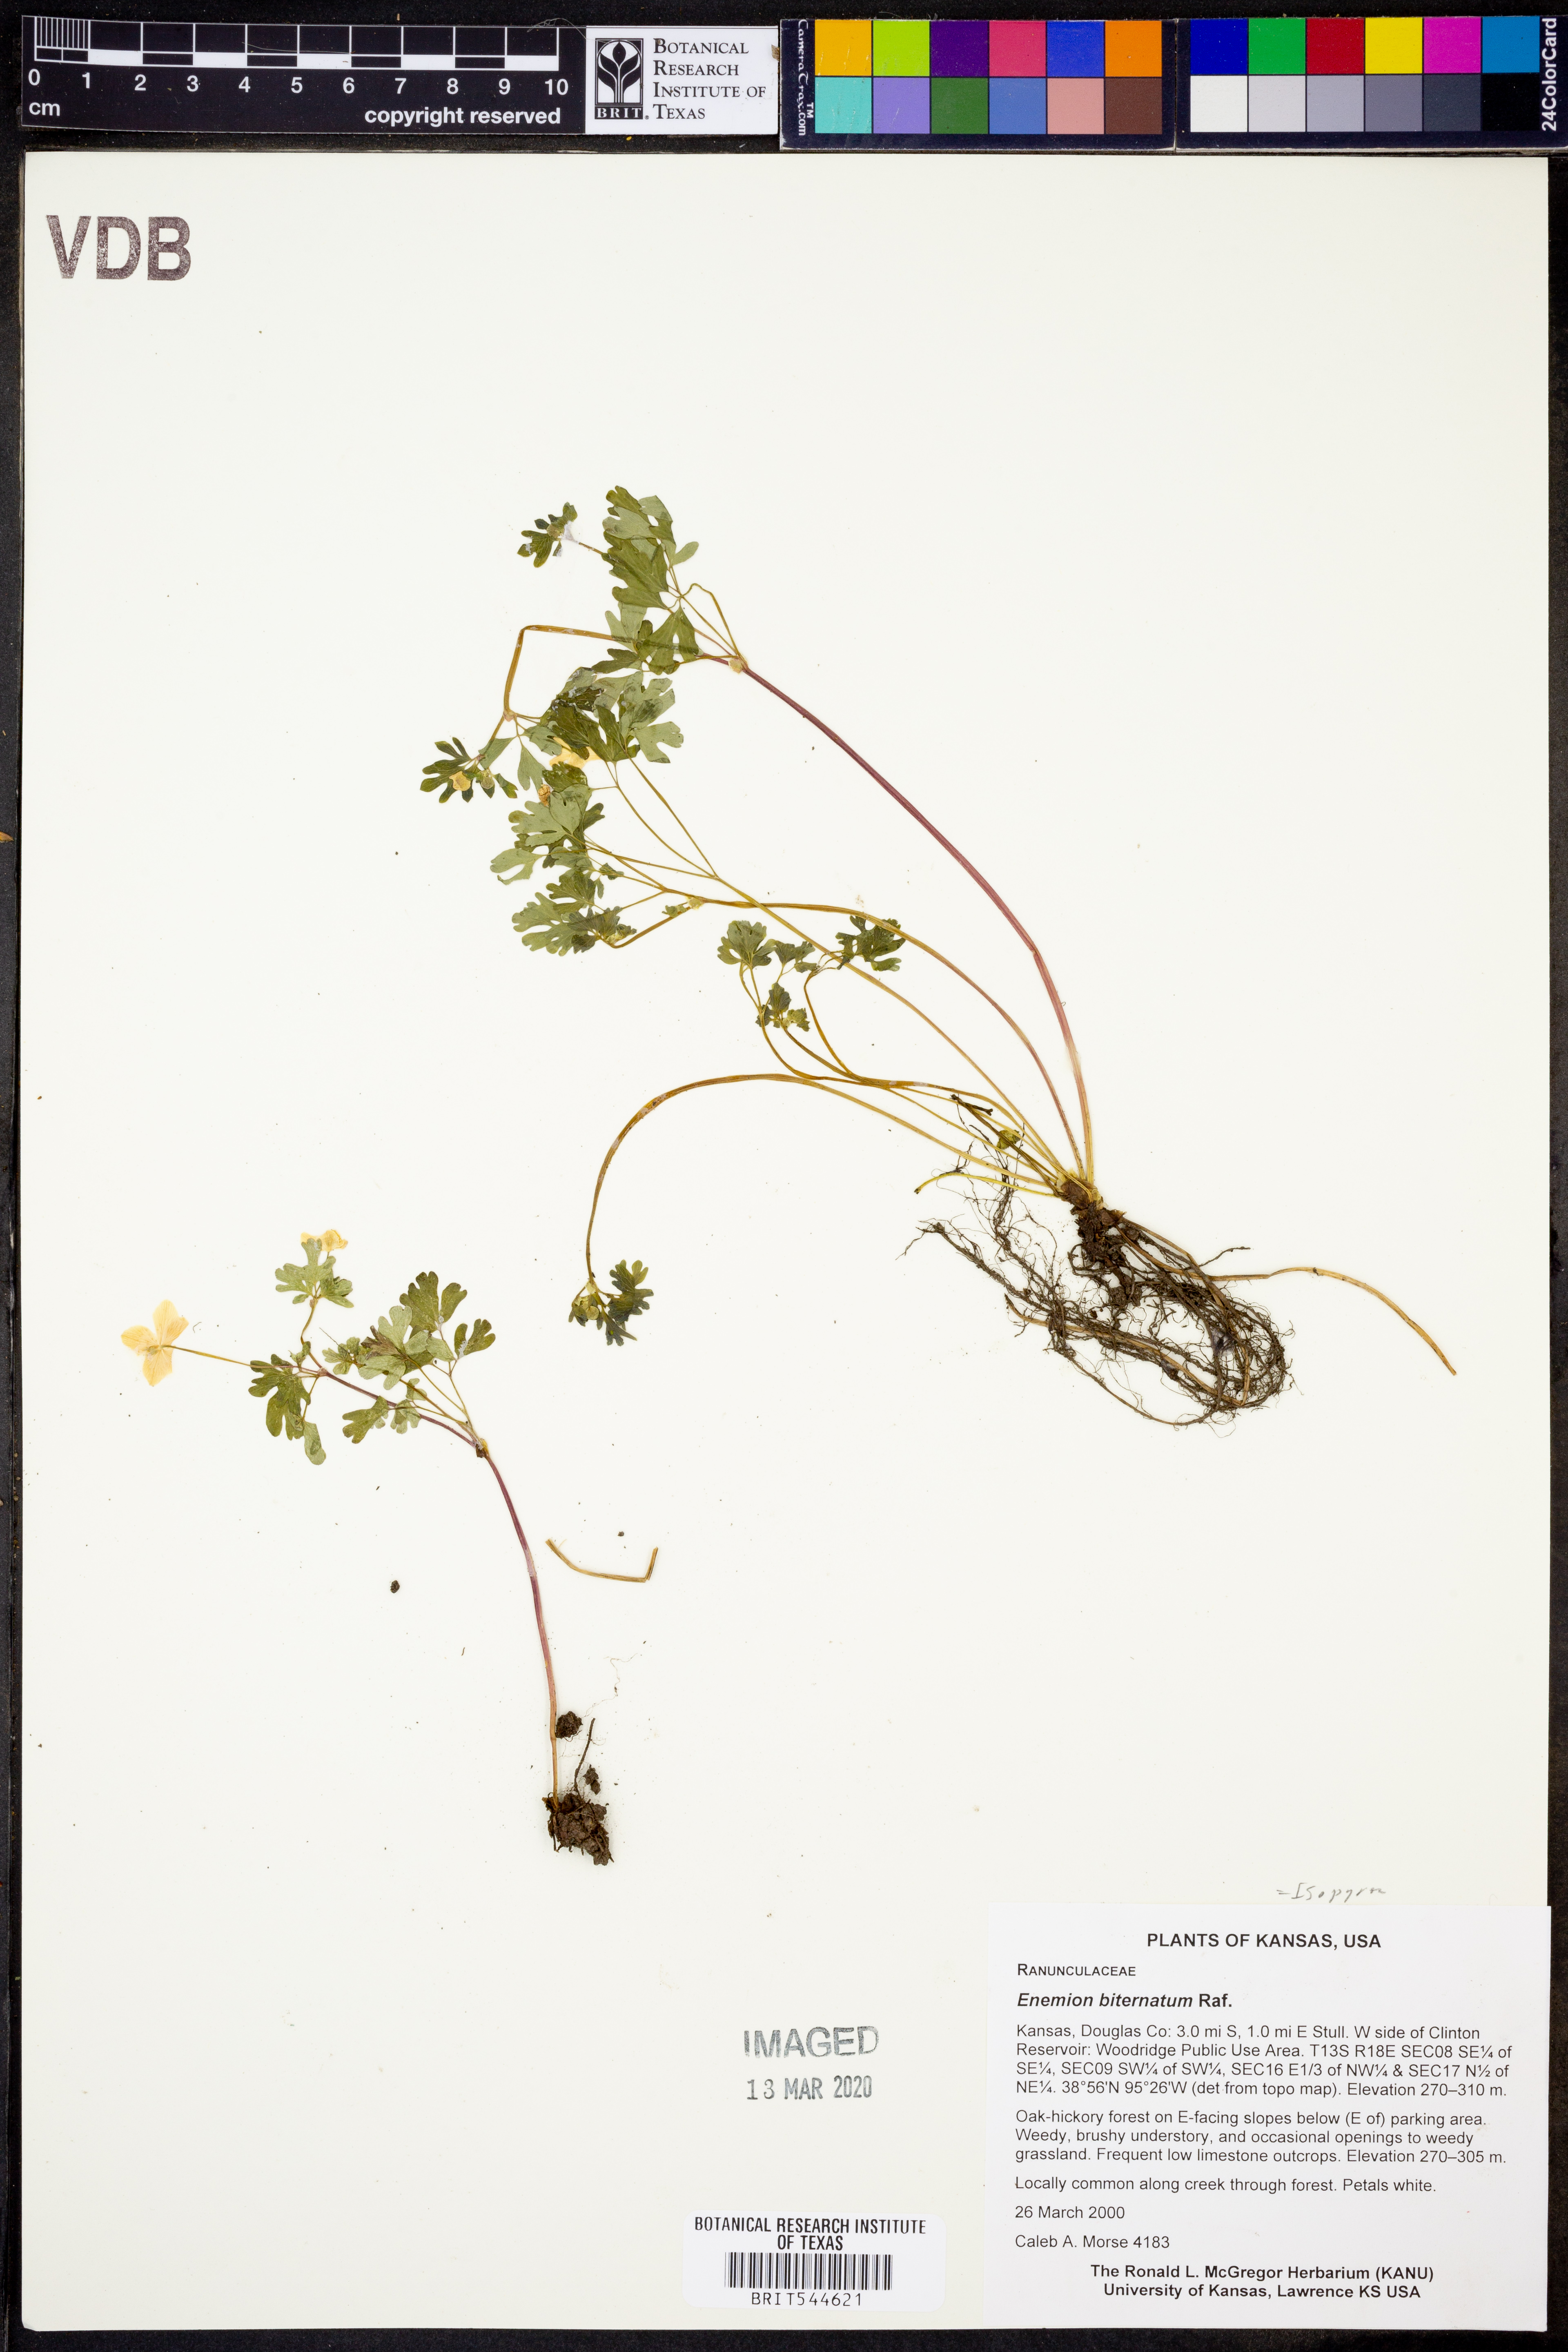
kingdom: Plantae
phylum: Tracheophyta
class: Magnoliopsida
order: Ranunculales
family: Ranunculaceae
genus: Enemion
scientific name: Enemion biternatum
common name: Eastern false rue-anemone
